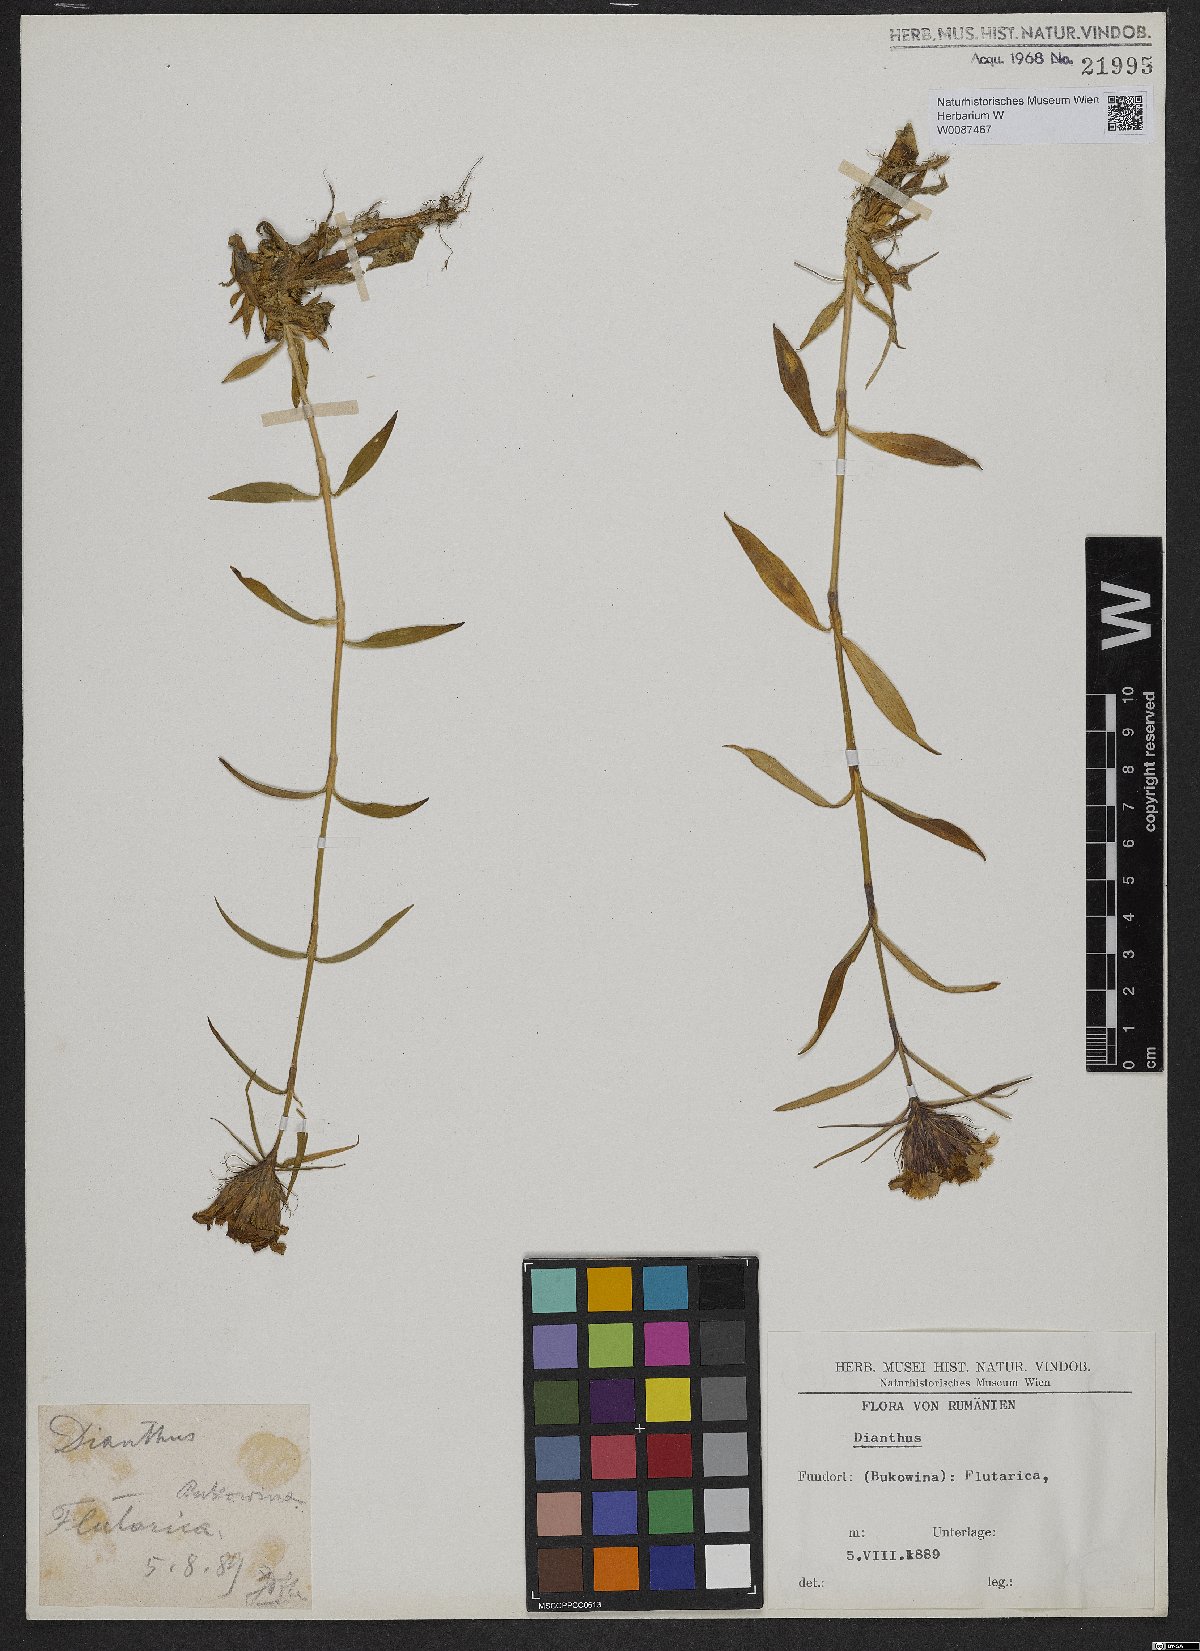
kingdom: Plantae
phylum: Tracheophyta
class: Magnoliopsida
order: Caryophyllales
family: Caryophyllaceae
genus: Dianthus
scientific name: Dianthus
